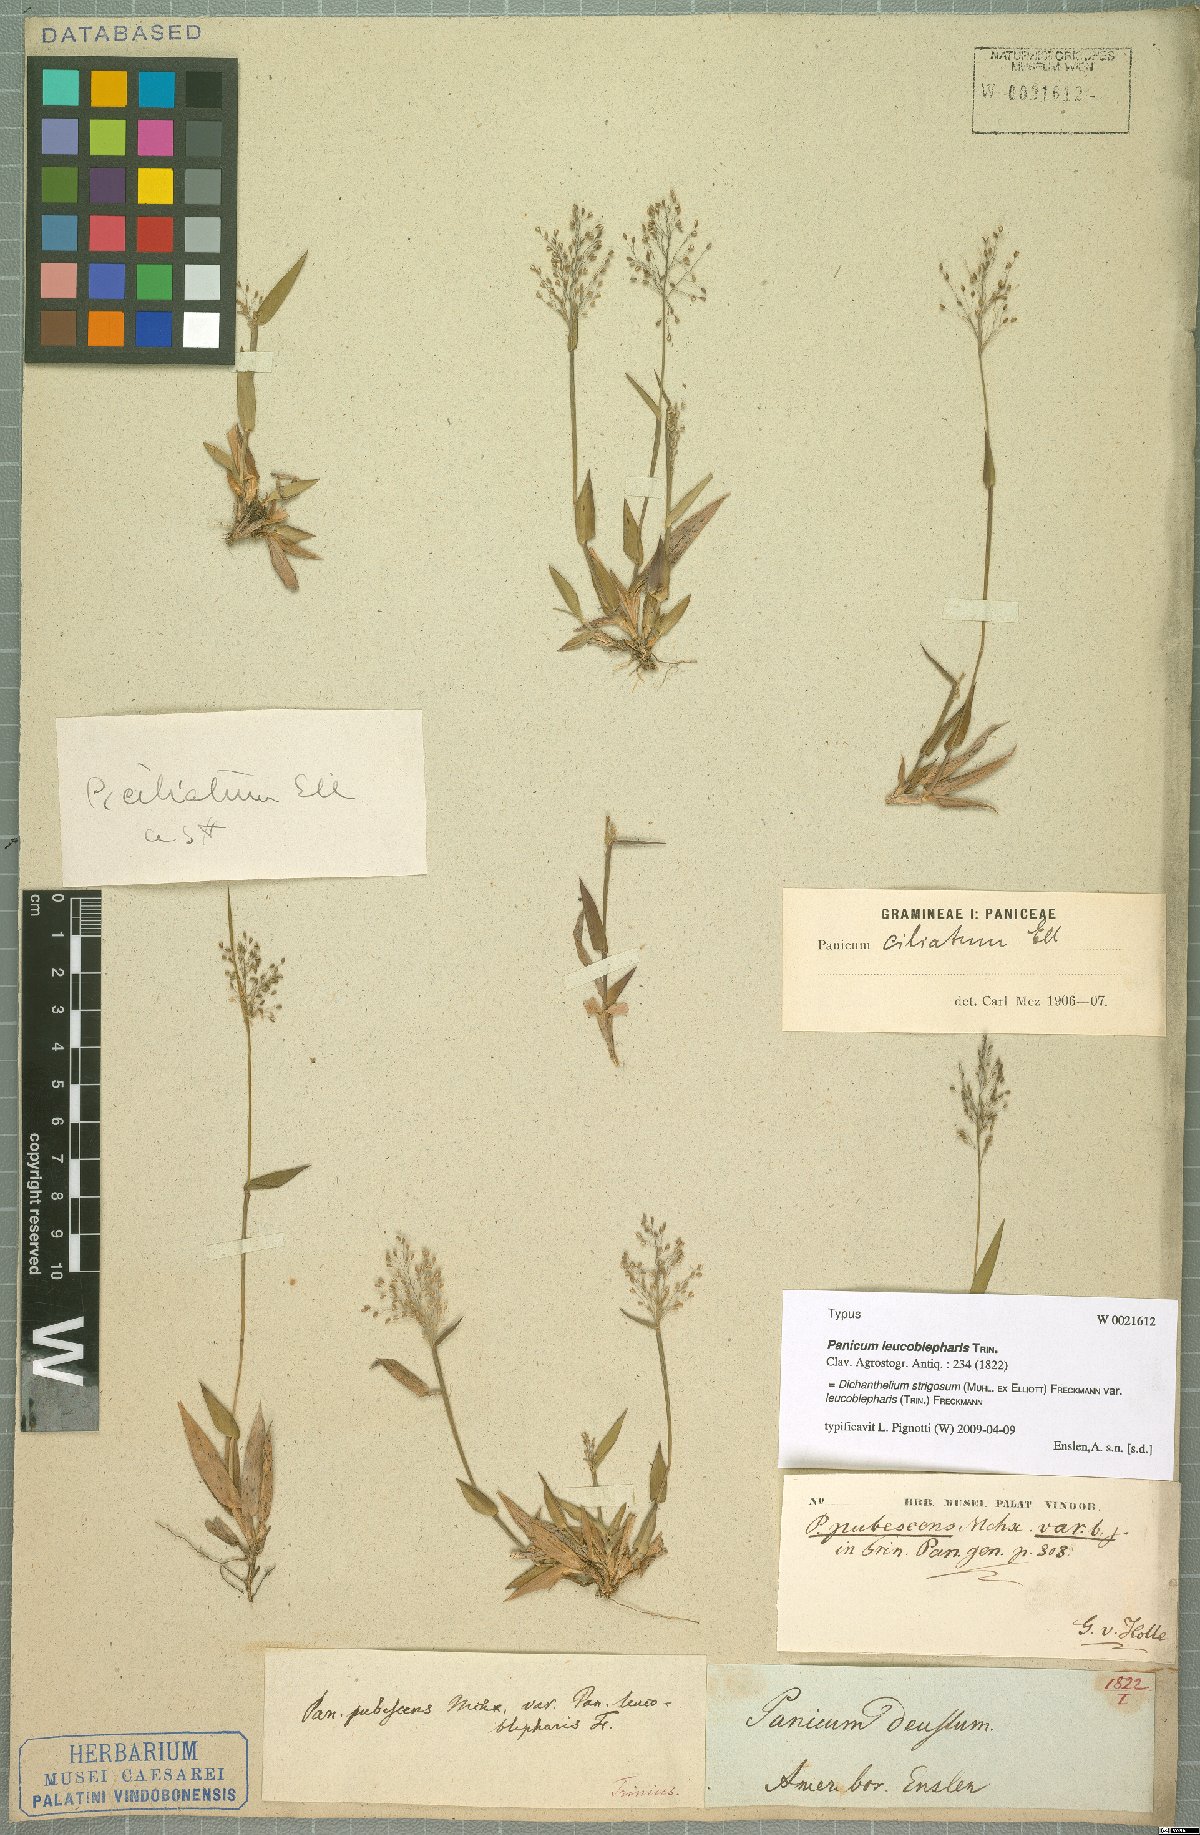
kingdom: Plantae
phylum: Tracheophyta
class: Liliopsida
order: Poales
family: Poaceae
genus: Dichanthelium
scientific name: Dichanthelium strigosum
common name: Cushion-tuft panic grass
